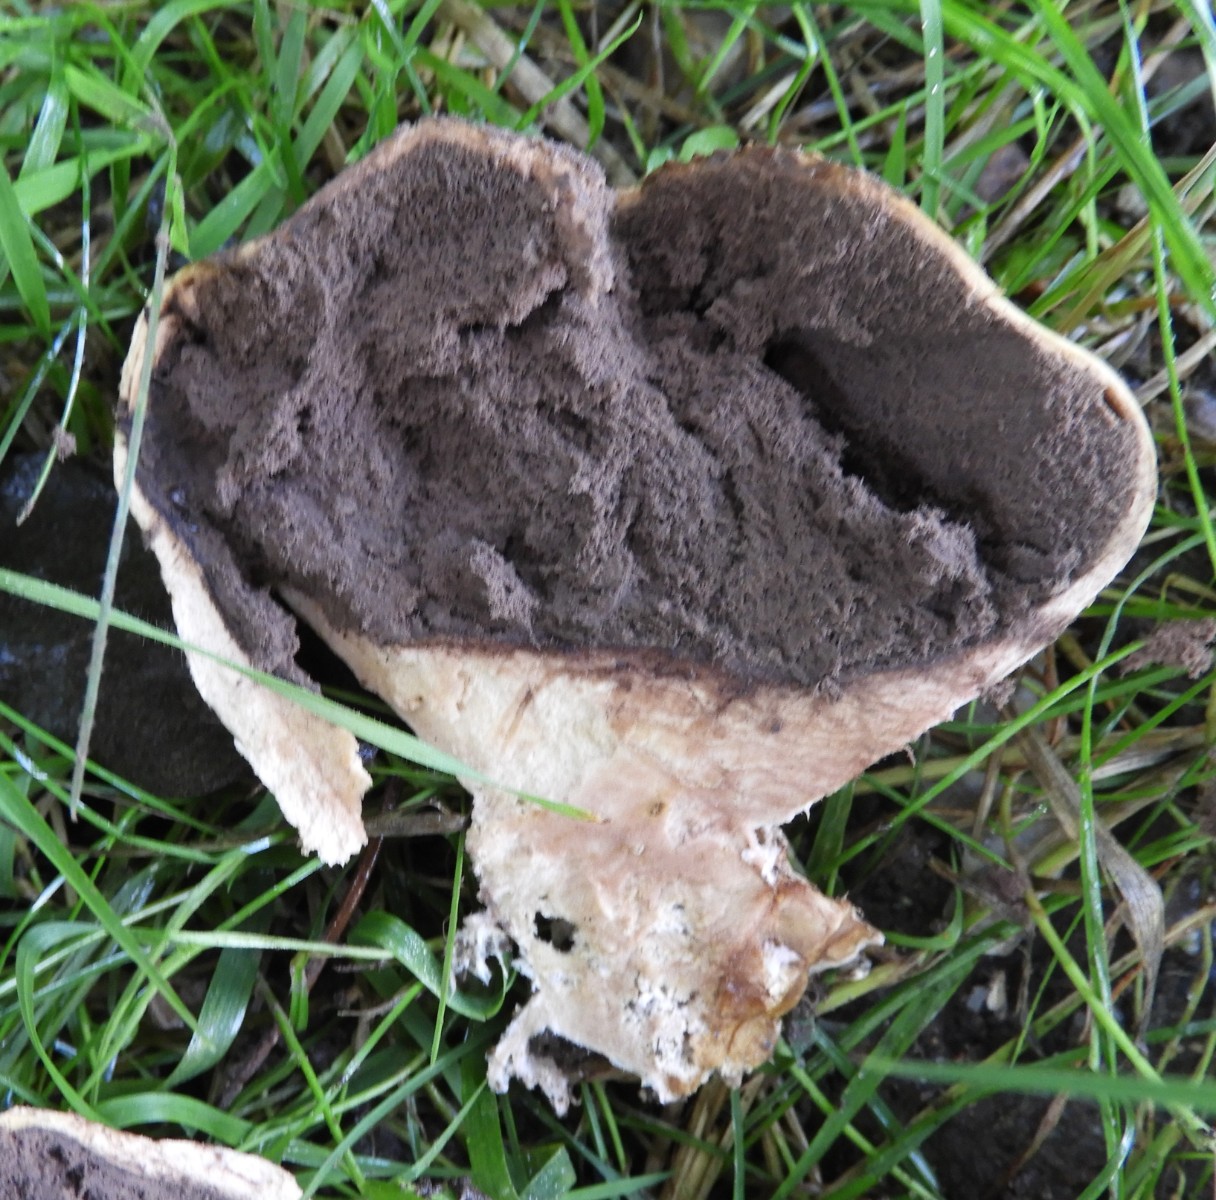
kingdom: Fungi
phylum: Basidiomycota
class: Agaricomycetes
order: Boletales
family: Sclerodermataceae
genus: Scleroderma
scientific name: Scleroderma verrucosum
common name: stilket bruskbold
